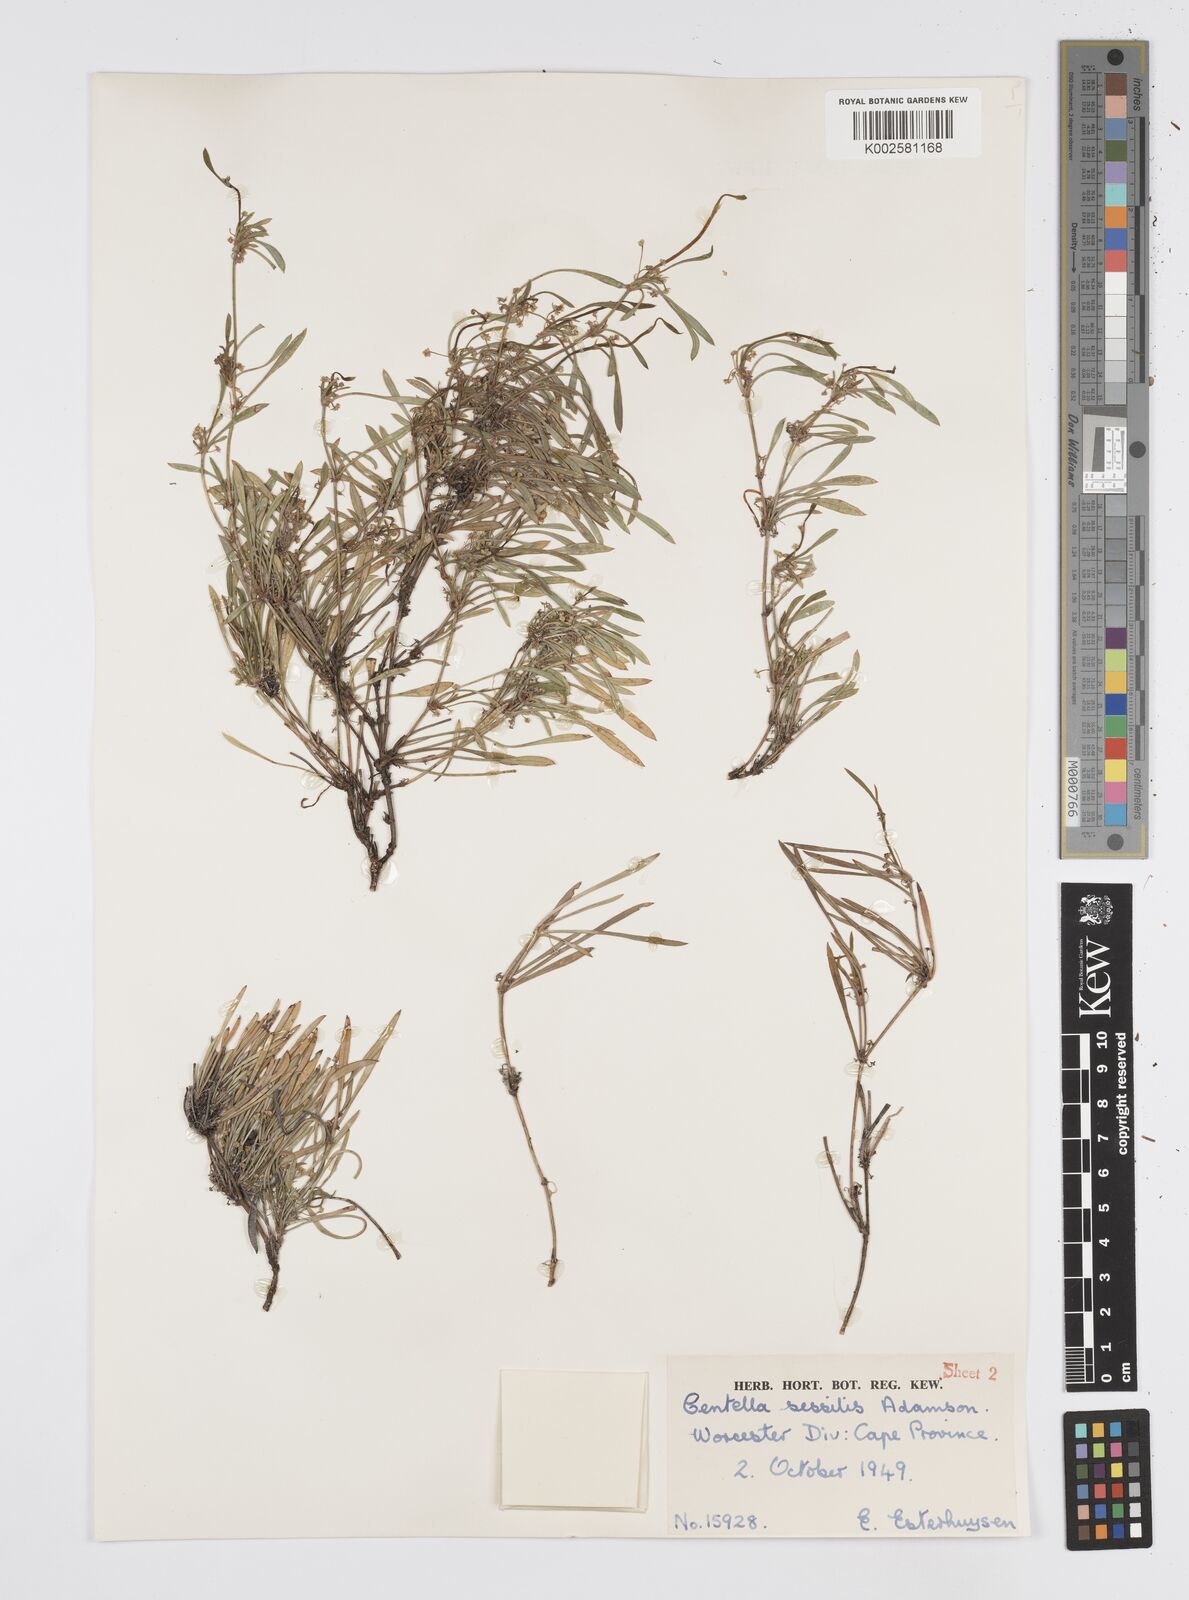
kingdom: Plantae
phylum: Tracheophyta
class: Magnoliopsida
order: Apiales
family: Apiaceae
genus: Centella
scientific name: Centella sessilis
